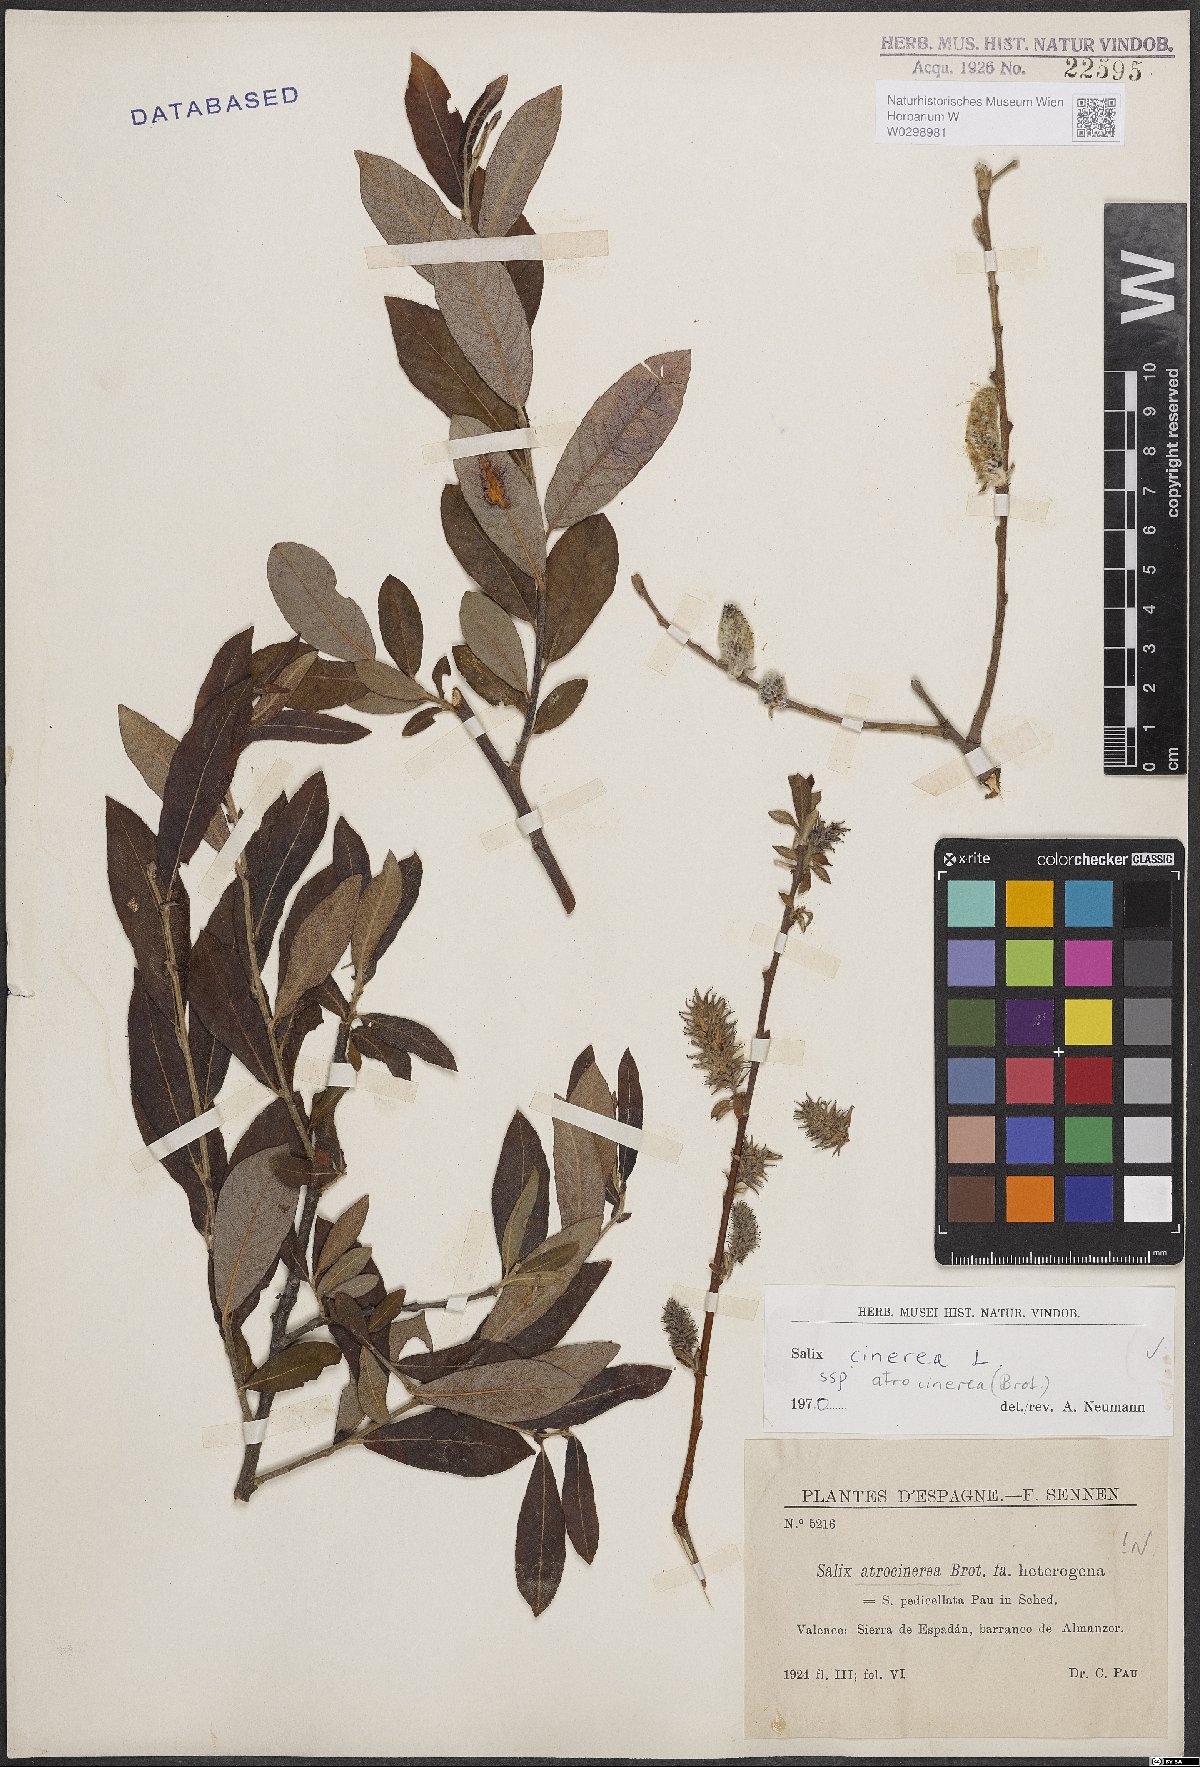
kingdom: Plantae
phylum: Tracheophyta
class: Magnoliopsida
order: Malpighiales
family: Salicaceae
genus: Salix
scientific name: Salix atrocinerea
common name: Rusty willow
